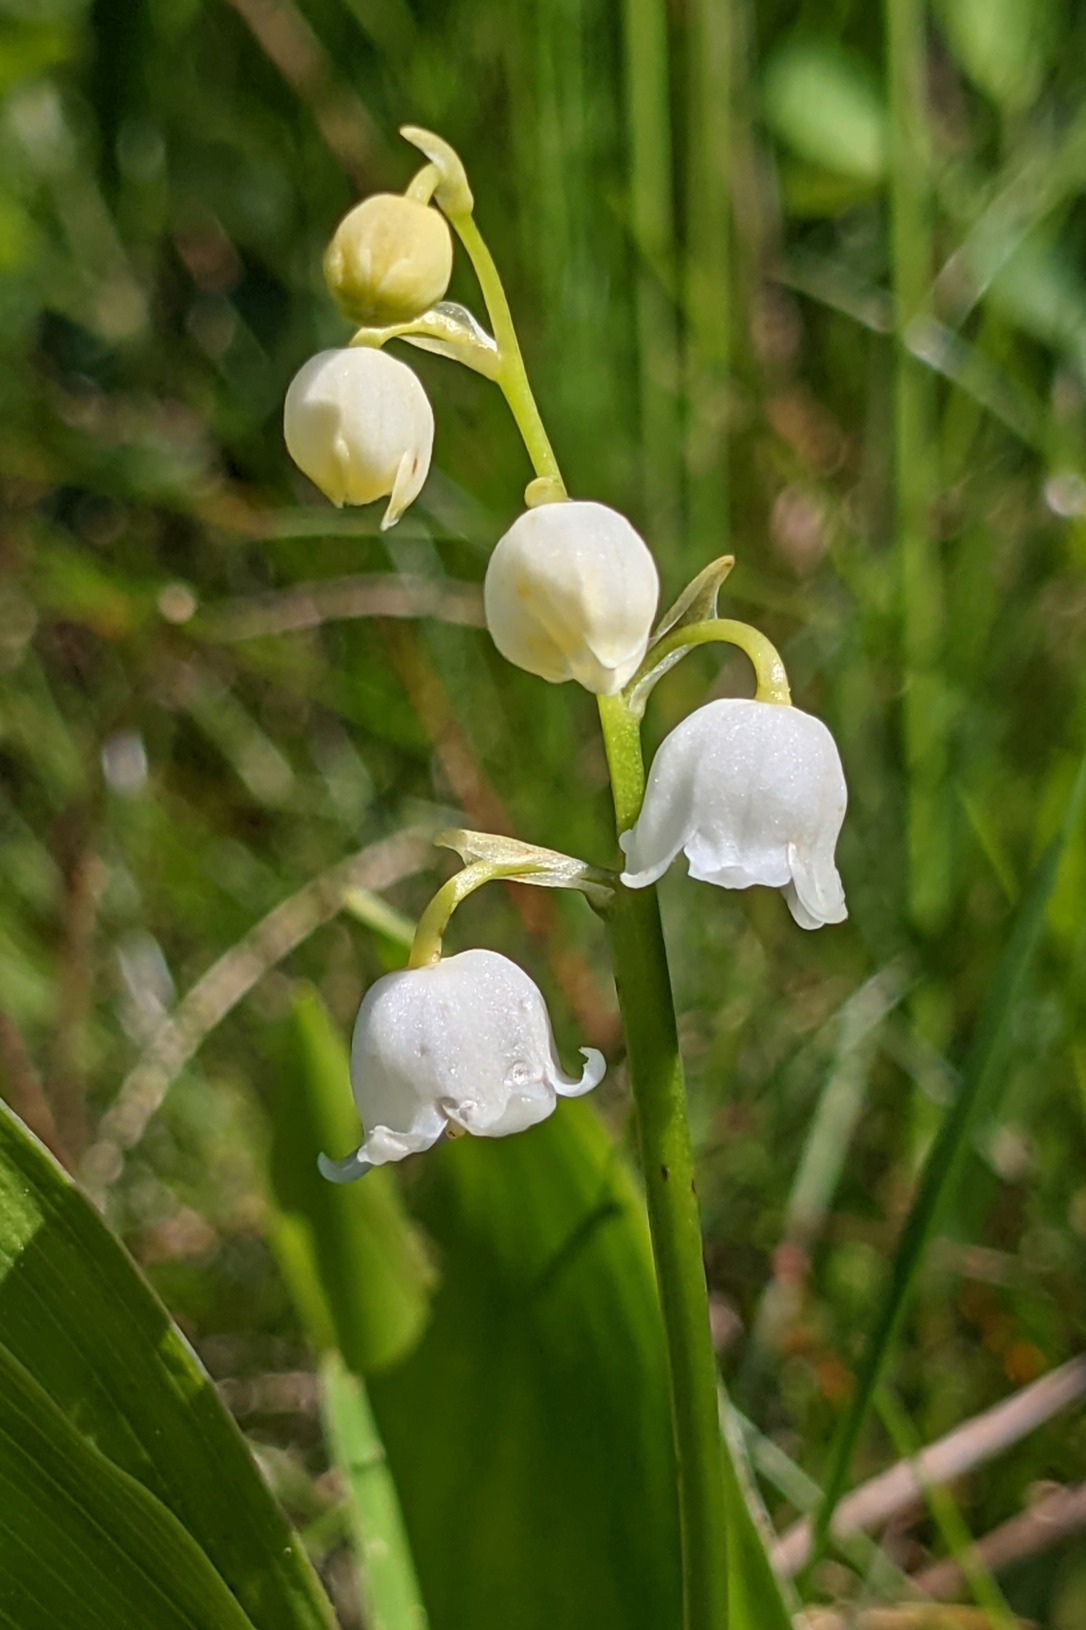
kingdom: Plantae
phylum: Tracheophyta
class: Liliopsida
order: Asparagales
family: Asparagaceae
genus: Convallaria
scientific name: Convallaria majalis
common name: Liljekonval
